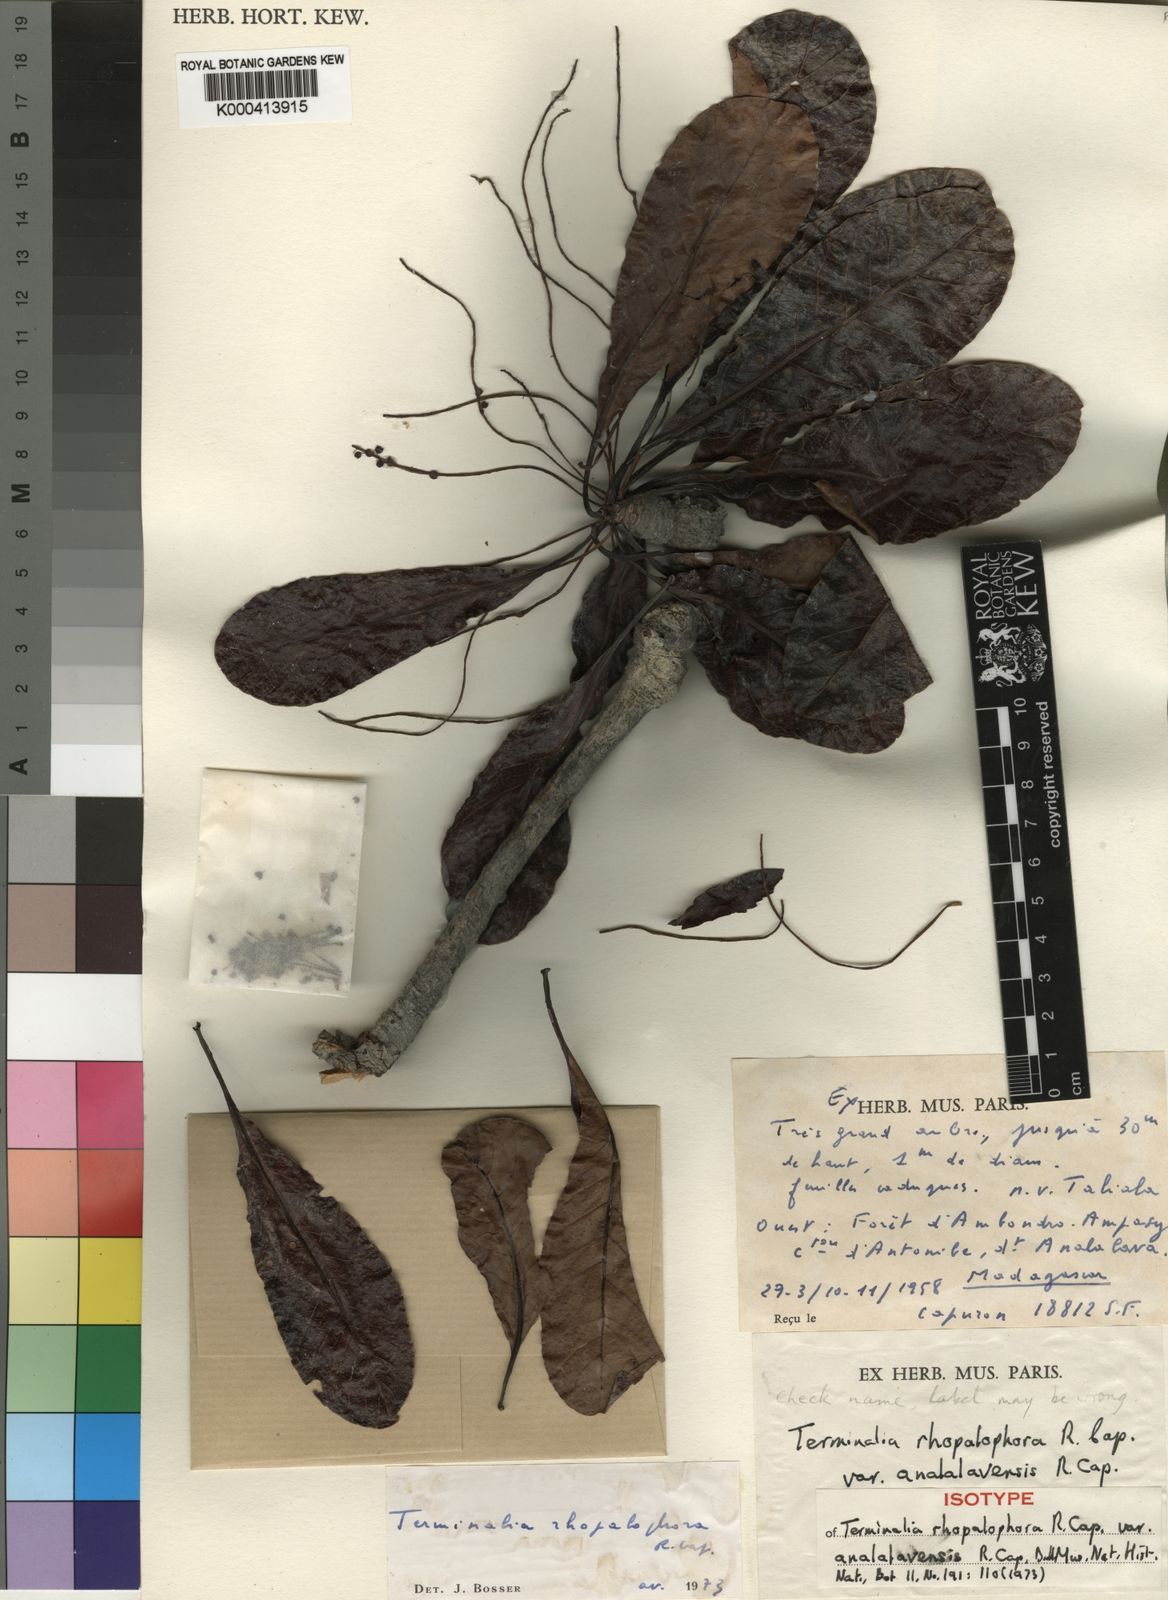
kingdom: Plantae
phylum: Tracheophyta
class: Magnoliopsida
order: Myrtales
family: Combretaceae
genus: Terminalia
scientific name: Terminalia rhopalophora
